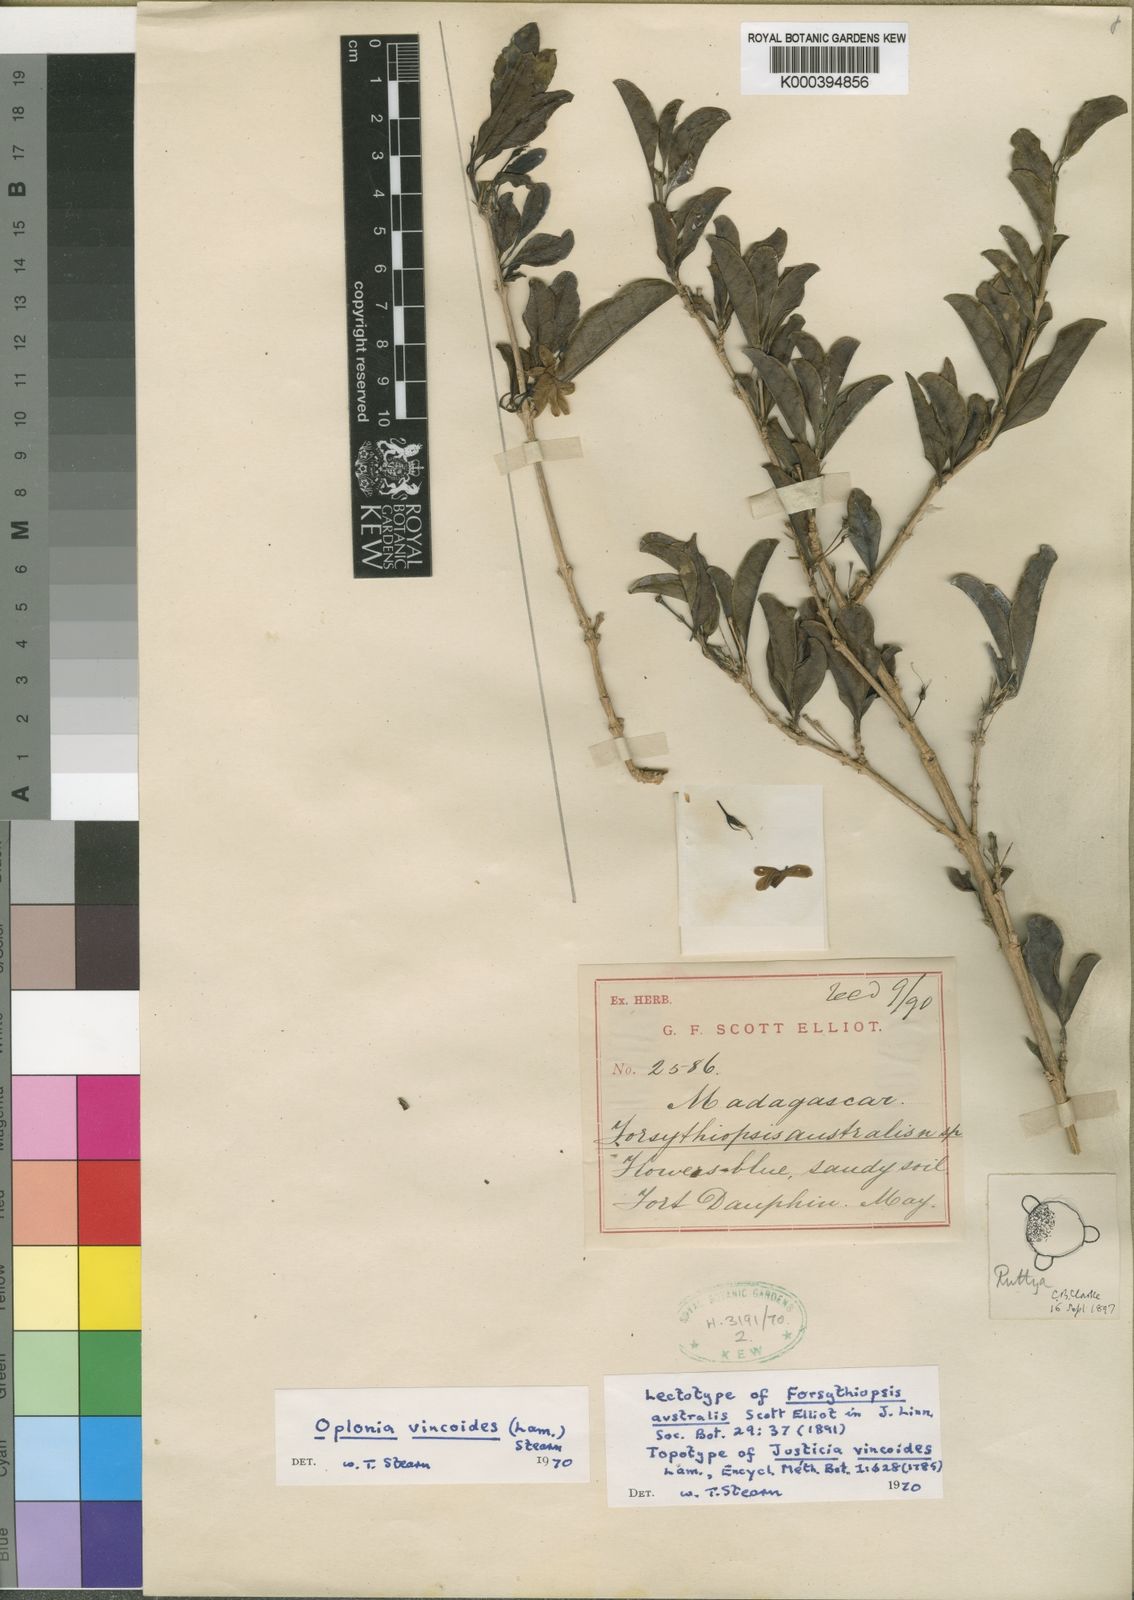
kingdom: Plantae
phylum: Tracheophyta
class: Magnoliopsida
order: Lamiales
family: Acanthaceae
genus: Oplonia
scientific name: Oplonia vincoides
